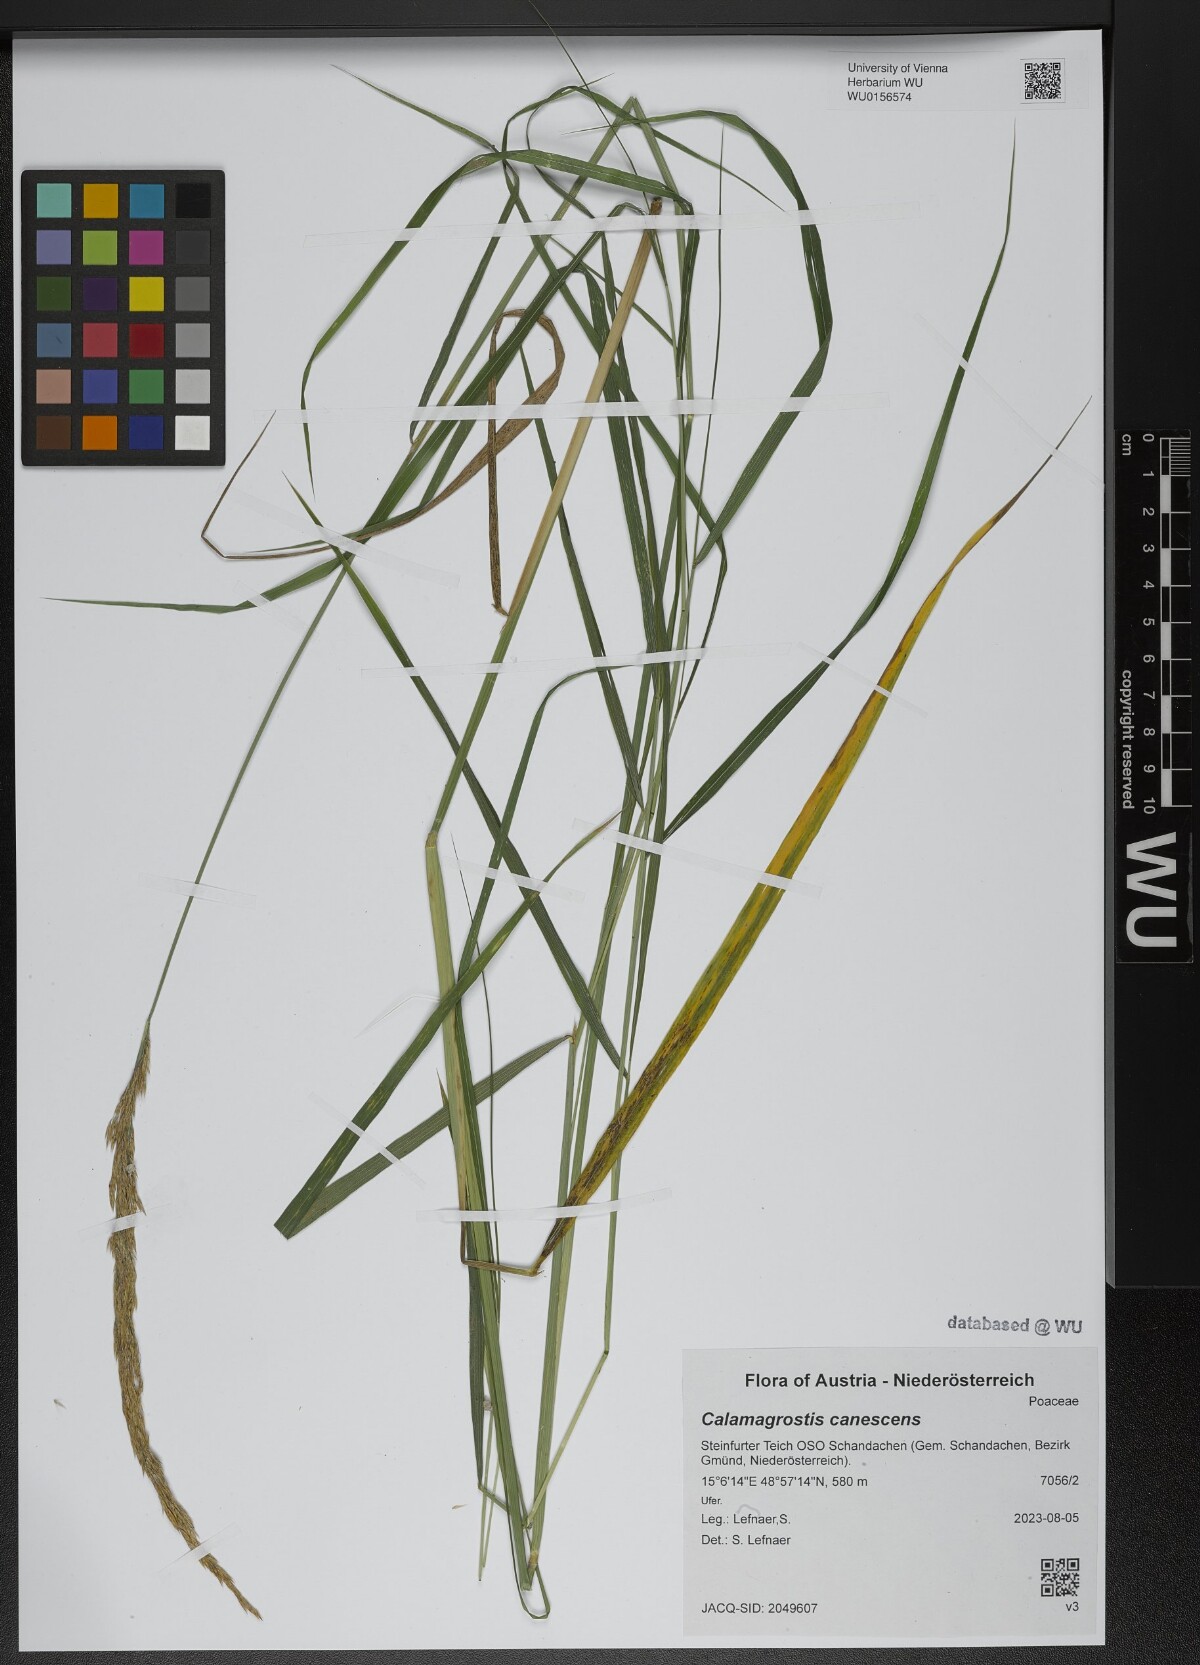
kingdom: Plantae
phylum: Tracheophyta
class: Liliopsida
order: Poales
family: Poaceae
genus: Calamagrostis
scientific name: Calamagrostis canescens
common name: Purple small-reed
